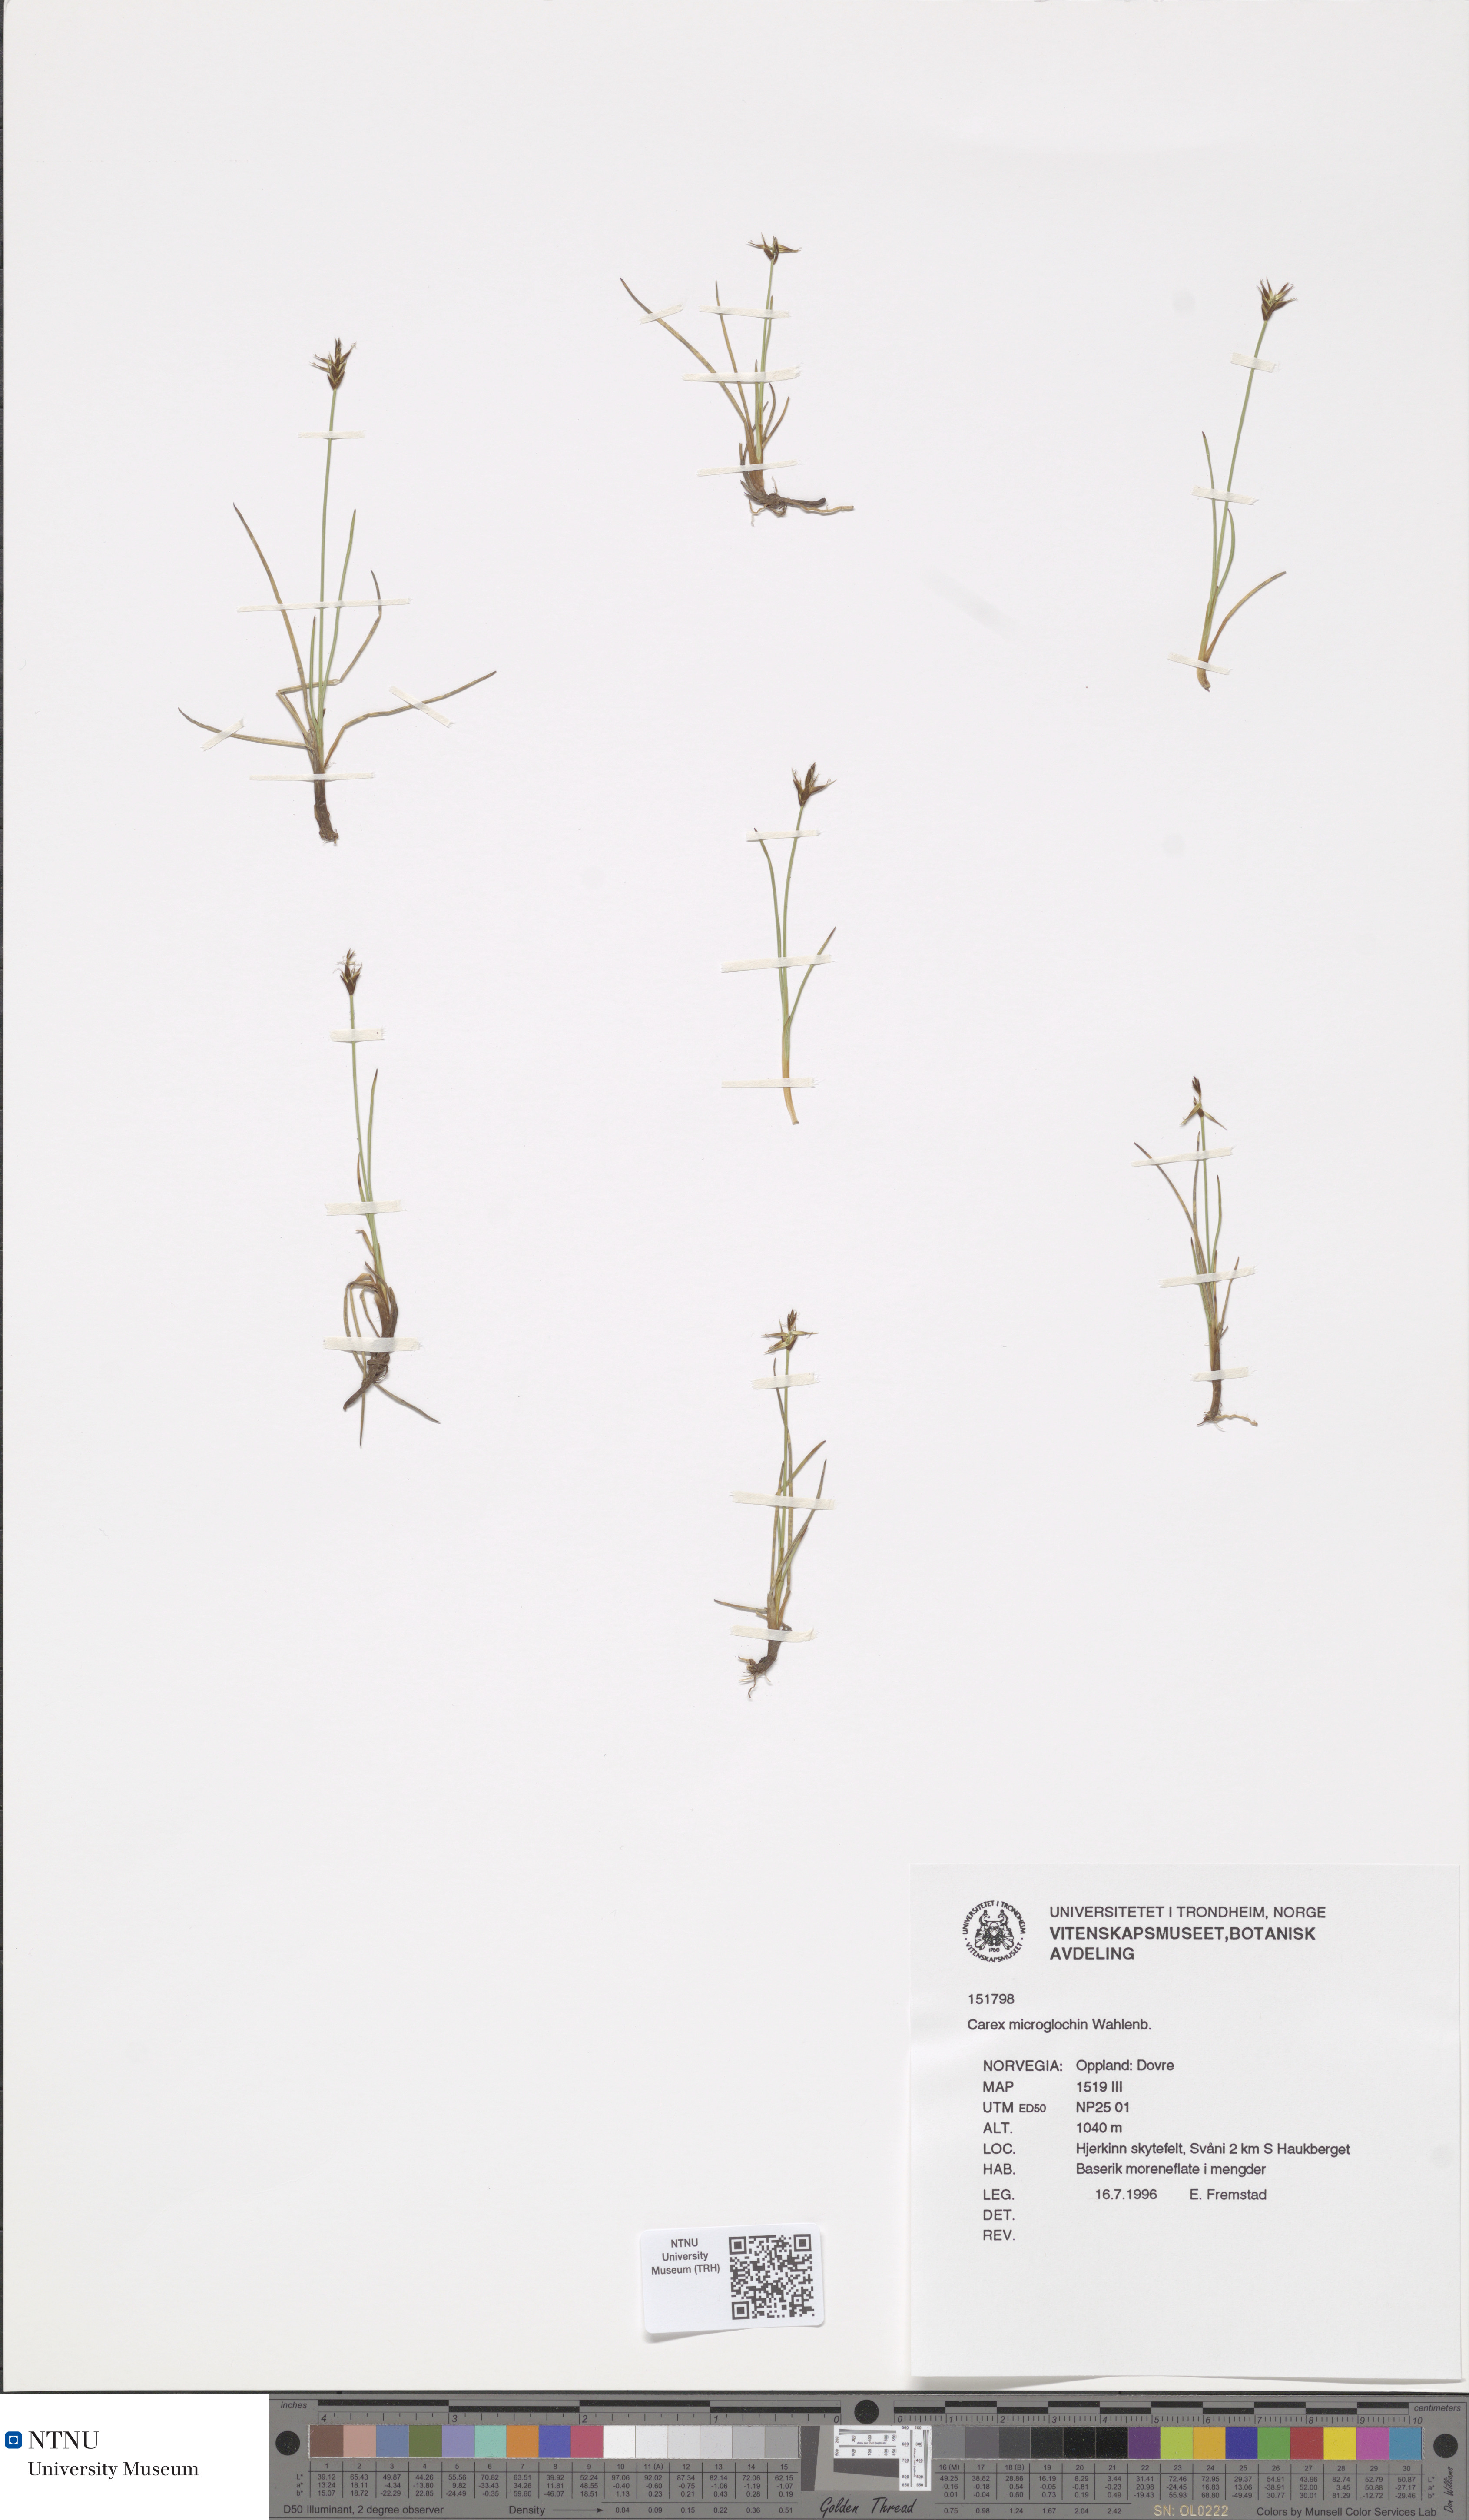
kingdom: Plantae
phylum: Tracheophyta
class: Liliopsida
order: Poales
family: Cyperaceae
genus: Carex
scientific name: Carex microglochin
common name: Bristle sedge
